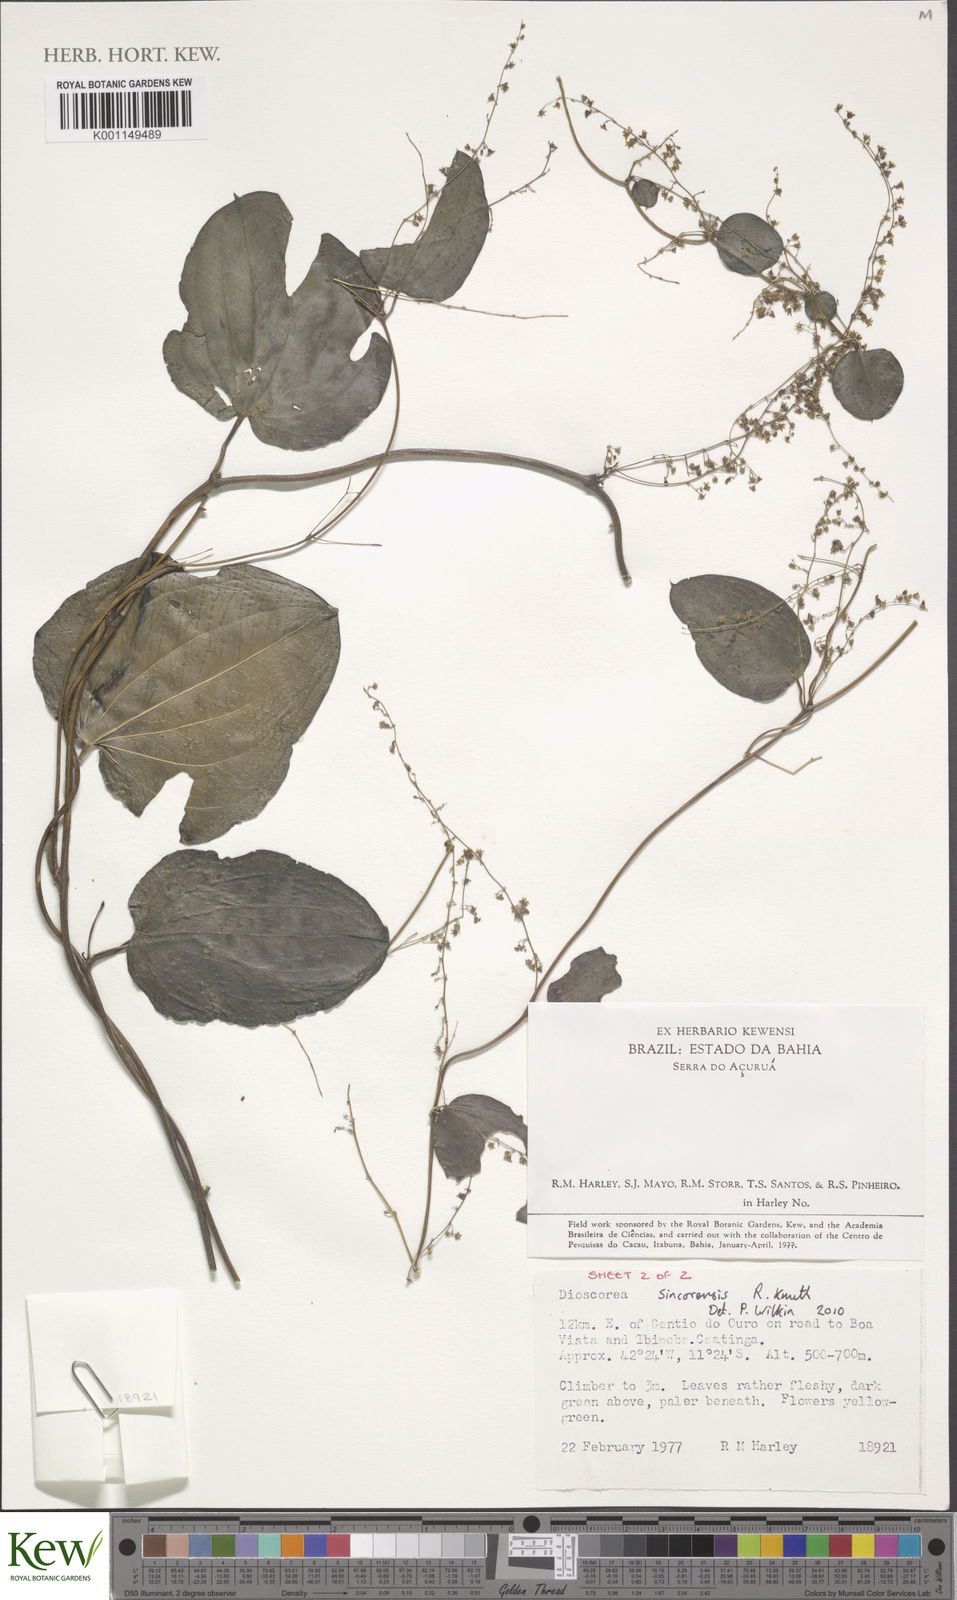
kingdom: Plantae
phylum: Tracheophyta
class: Liliopsida
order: Dioscoreales
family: Dioscoreaceae
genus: Dioscorea
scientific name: Dioscorea campestris
